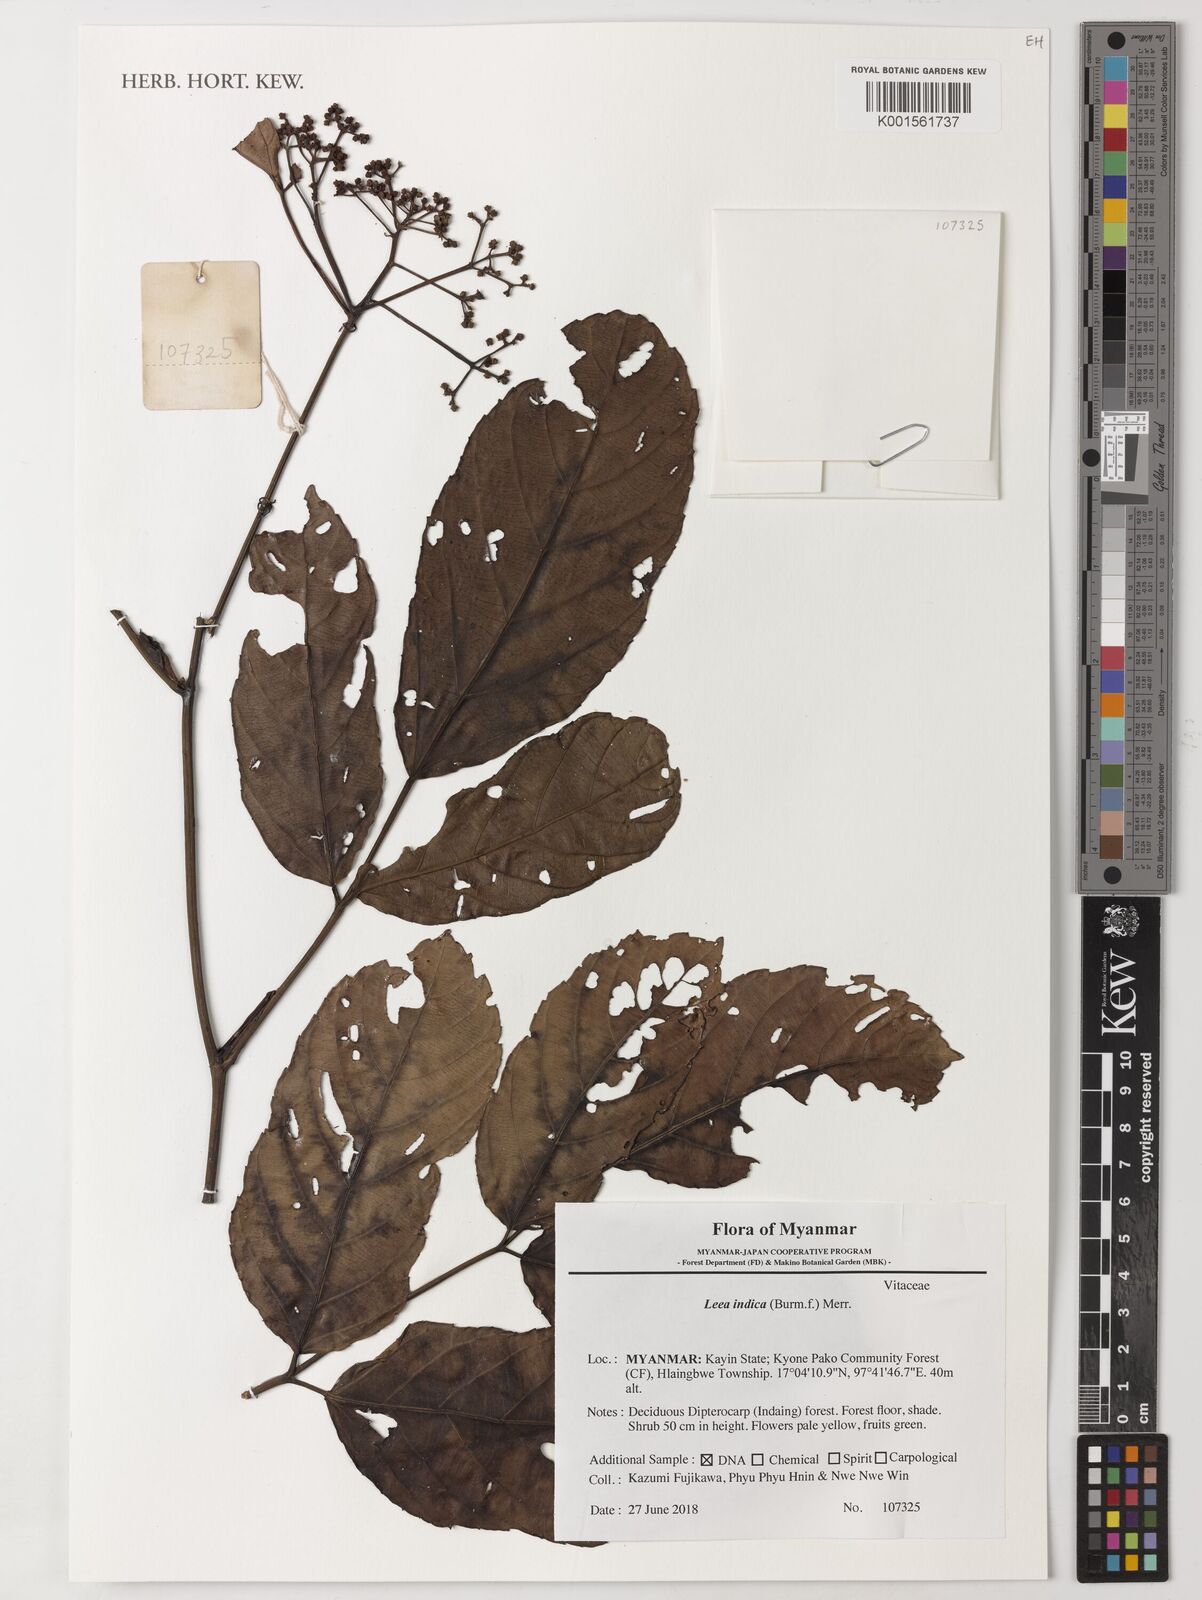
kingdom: Plantae
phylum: Tracheophyta
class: Magnoliopsida
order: Vitales
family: Vitaceae
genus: Leea
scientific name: Leea indica
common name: Bandicoot-berry
